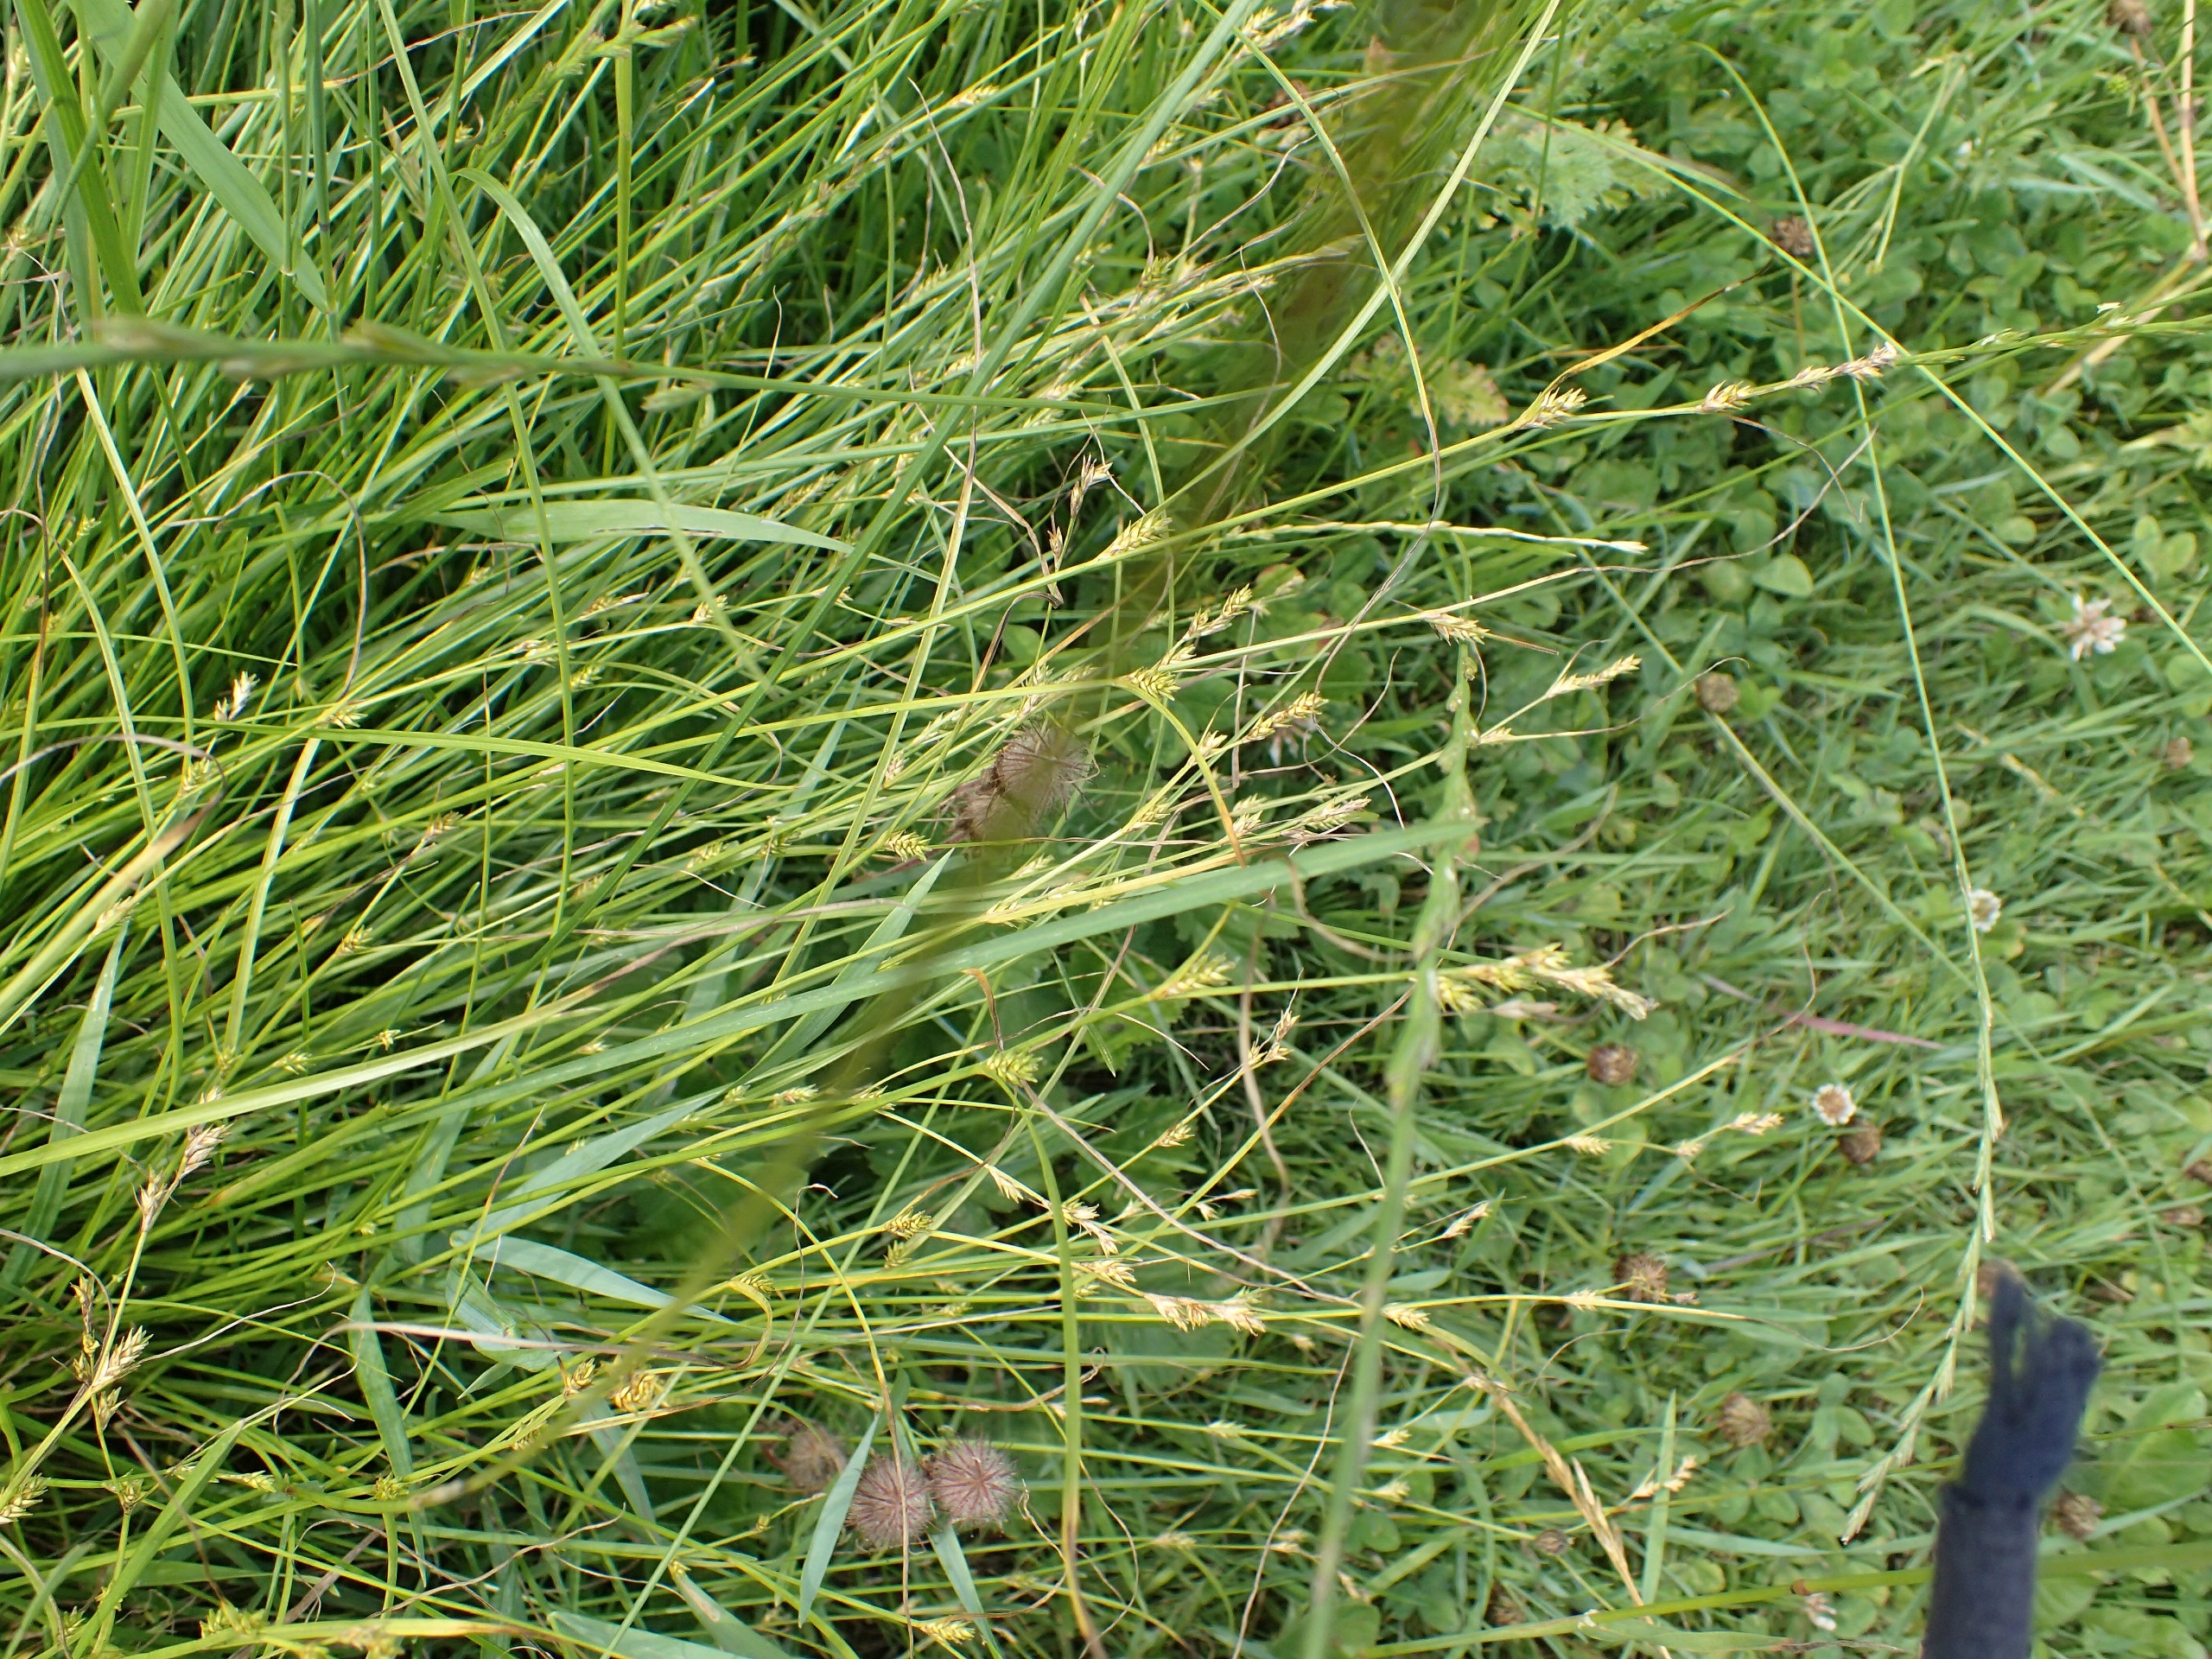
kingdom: Plantae
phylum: Tracheophyta
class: Liliopsida
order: Poales
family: Cyperaceae
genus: Carex
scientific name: Carex remota
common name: Akselblomstret star
